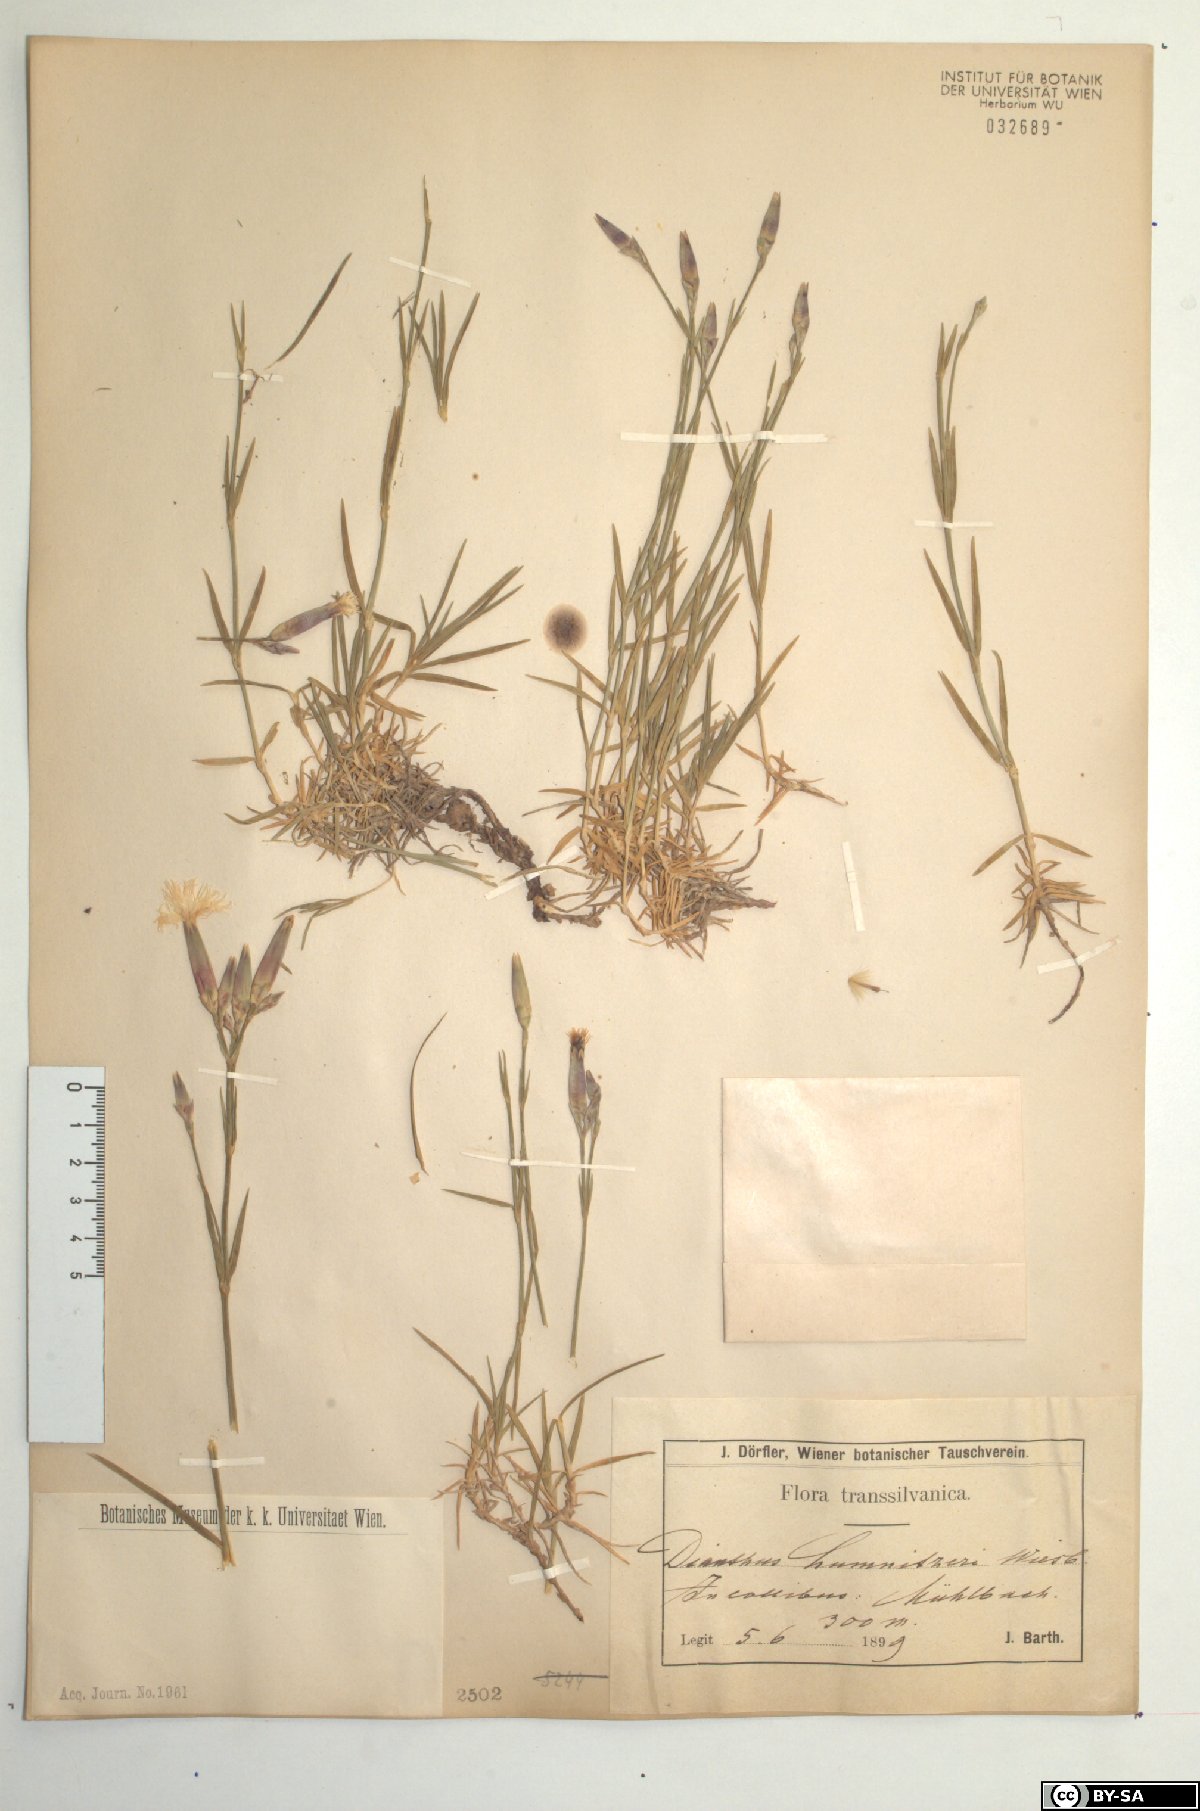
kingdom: Plantae
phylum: Tracheophyta
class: Magnoliopsida
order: Caryophyllales
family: Caryophyllaceae
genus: Dianthus
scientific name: Dianthus praecox
